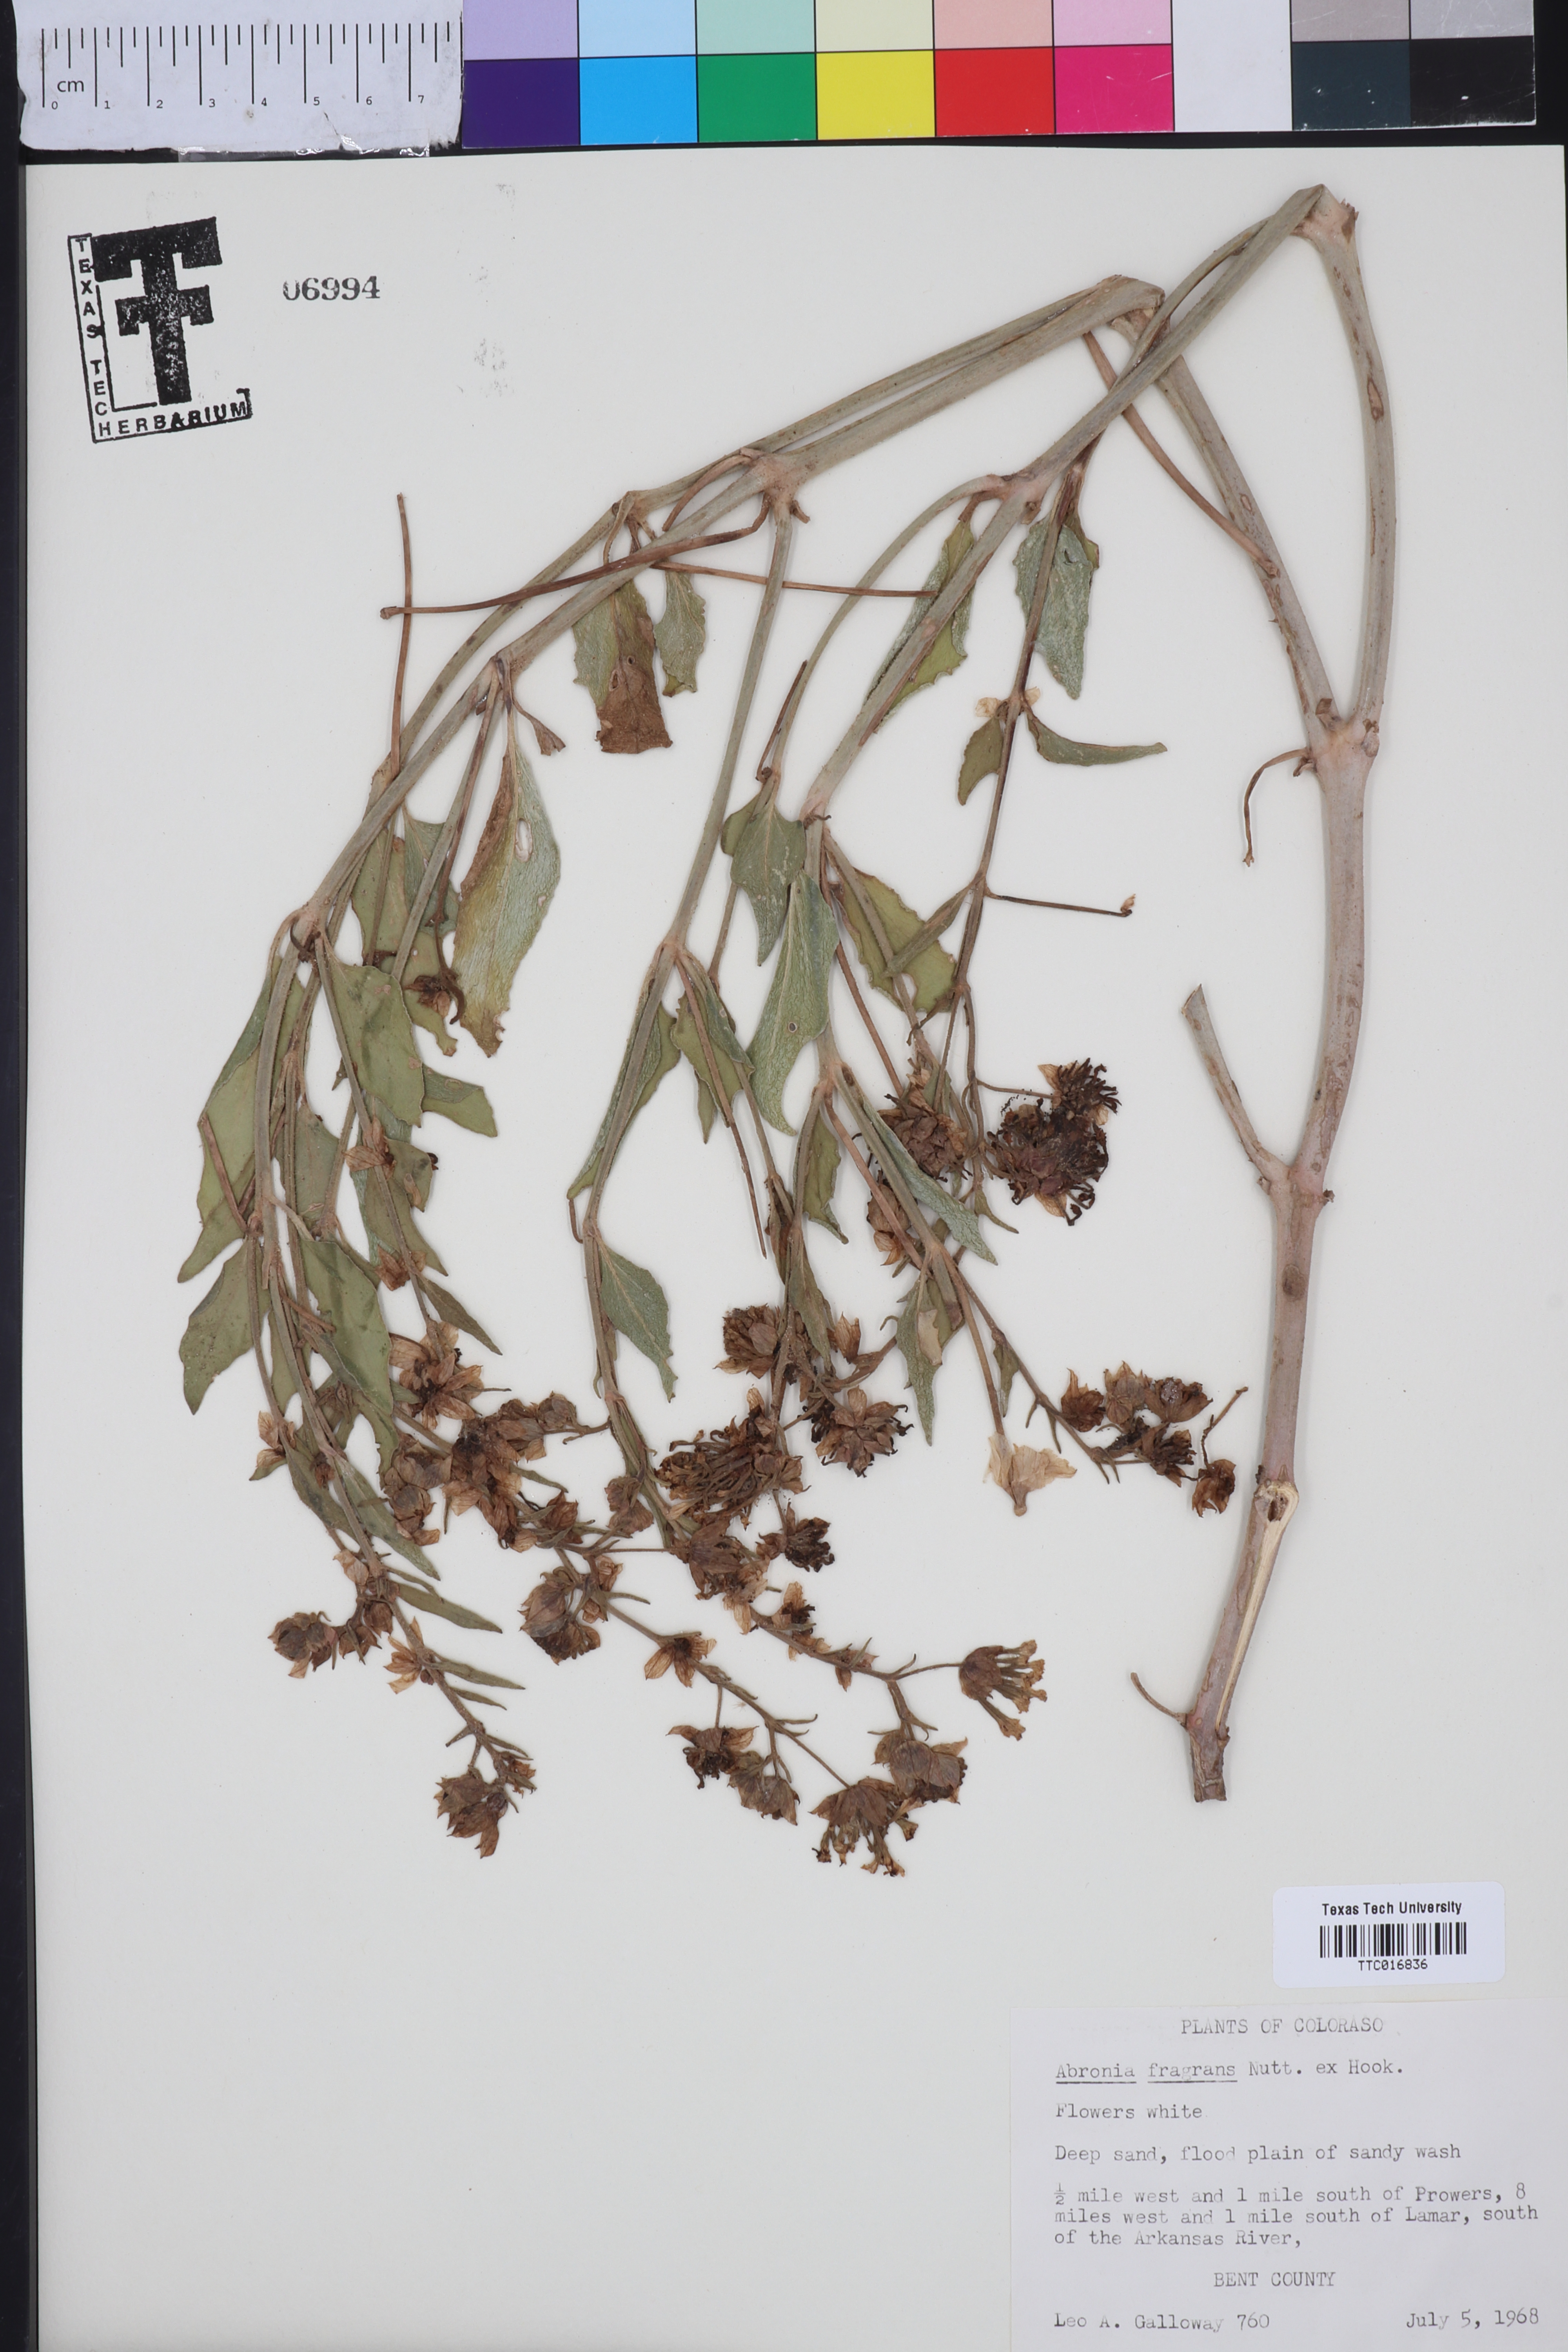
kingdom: Plantae
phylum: Tracheophyta
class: Magnoliopsida
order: Caryophyllales
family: Nyctaginaceae
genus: Abronia
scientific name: Abronia fragrans
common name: Fragrant sand-verbena
